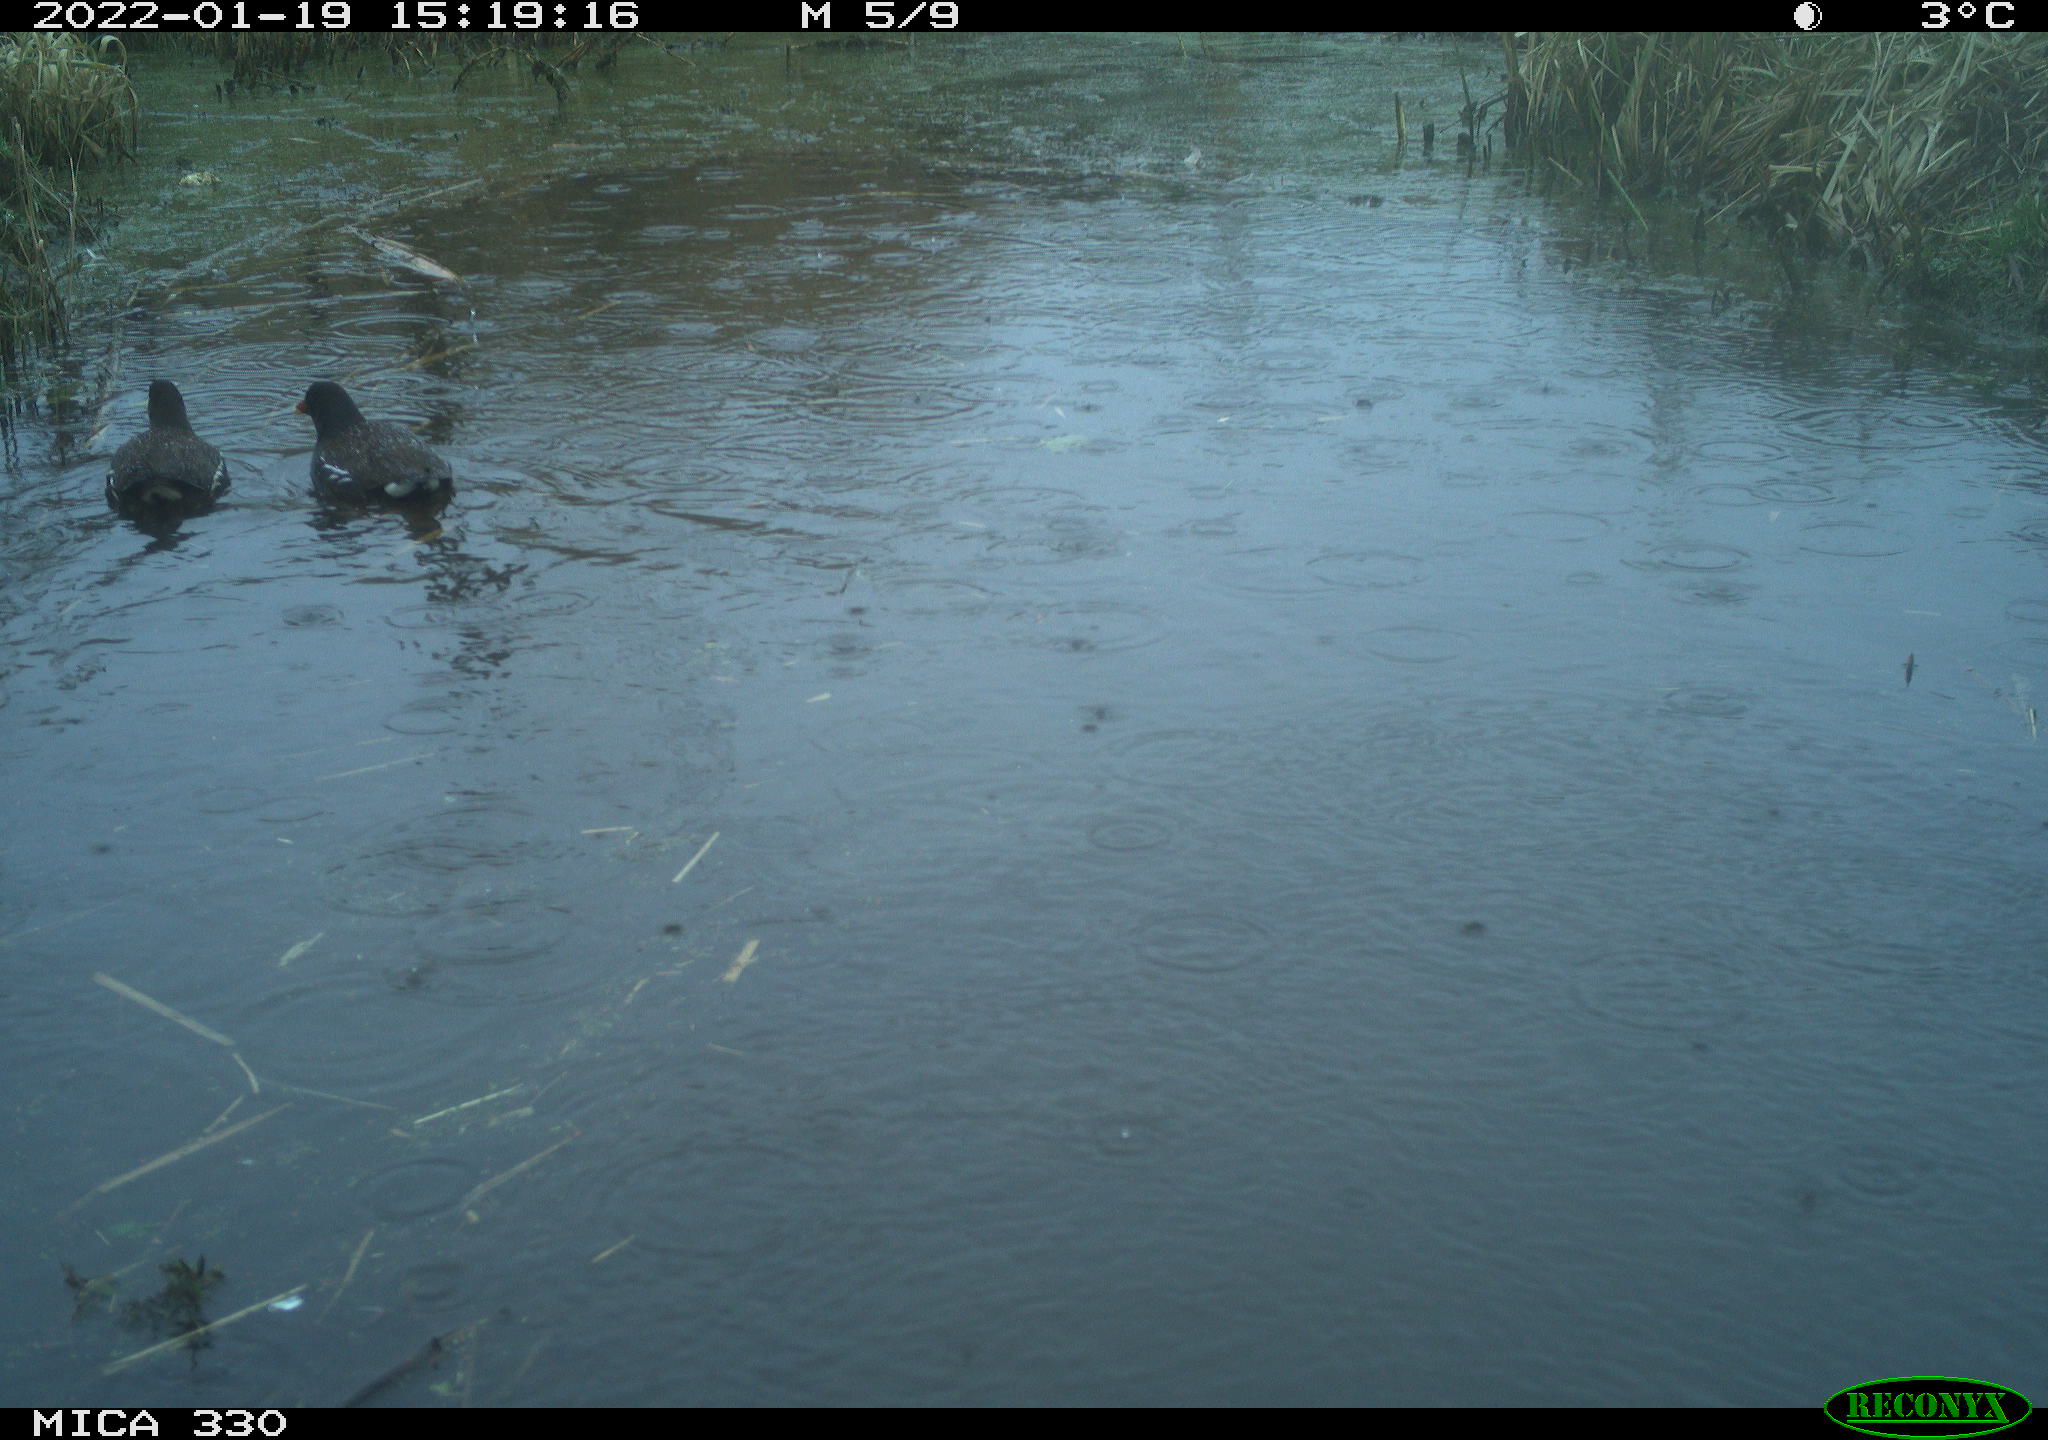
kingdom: Animalia
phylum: Chordata
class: Aves
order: Gruiformes
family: Rallidae
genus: Gallinula
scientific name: Gallinula chloropus
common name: Common moorhen
